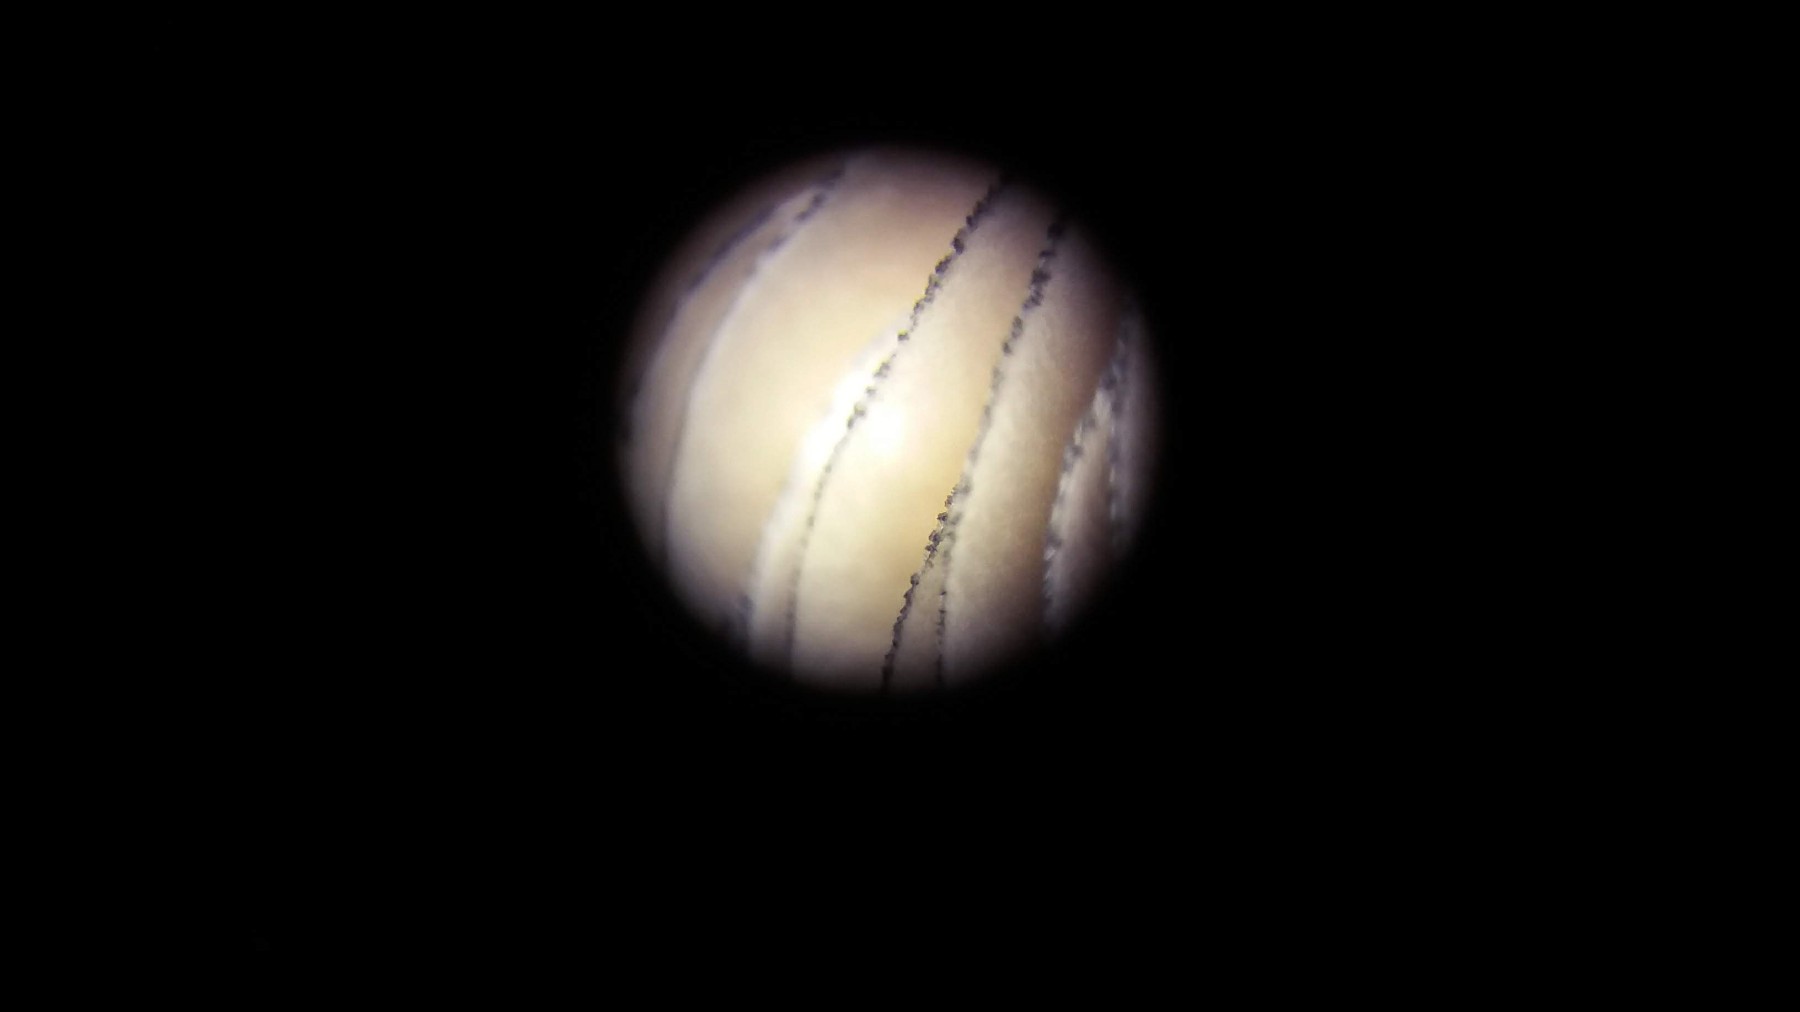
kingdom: Fungi
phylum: Basidiomycota
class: Agaricomycetes
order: Agaricales
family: Entolomataceae
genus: Entoloma
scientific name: Entoloma
